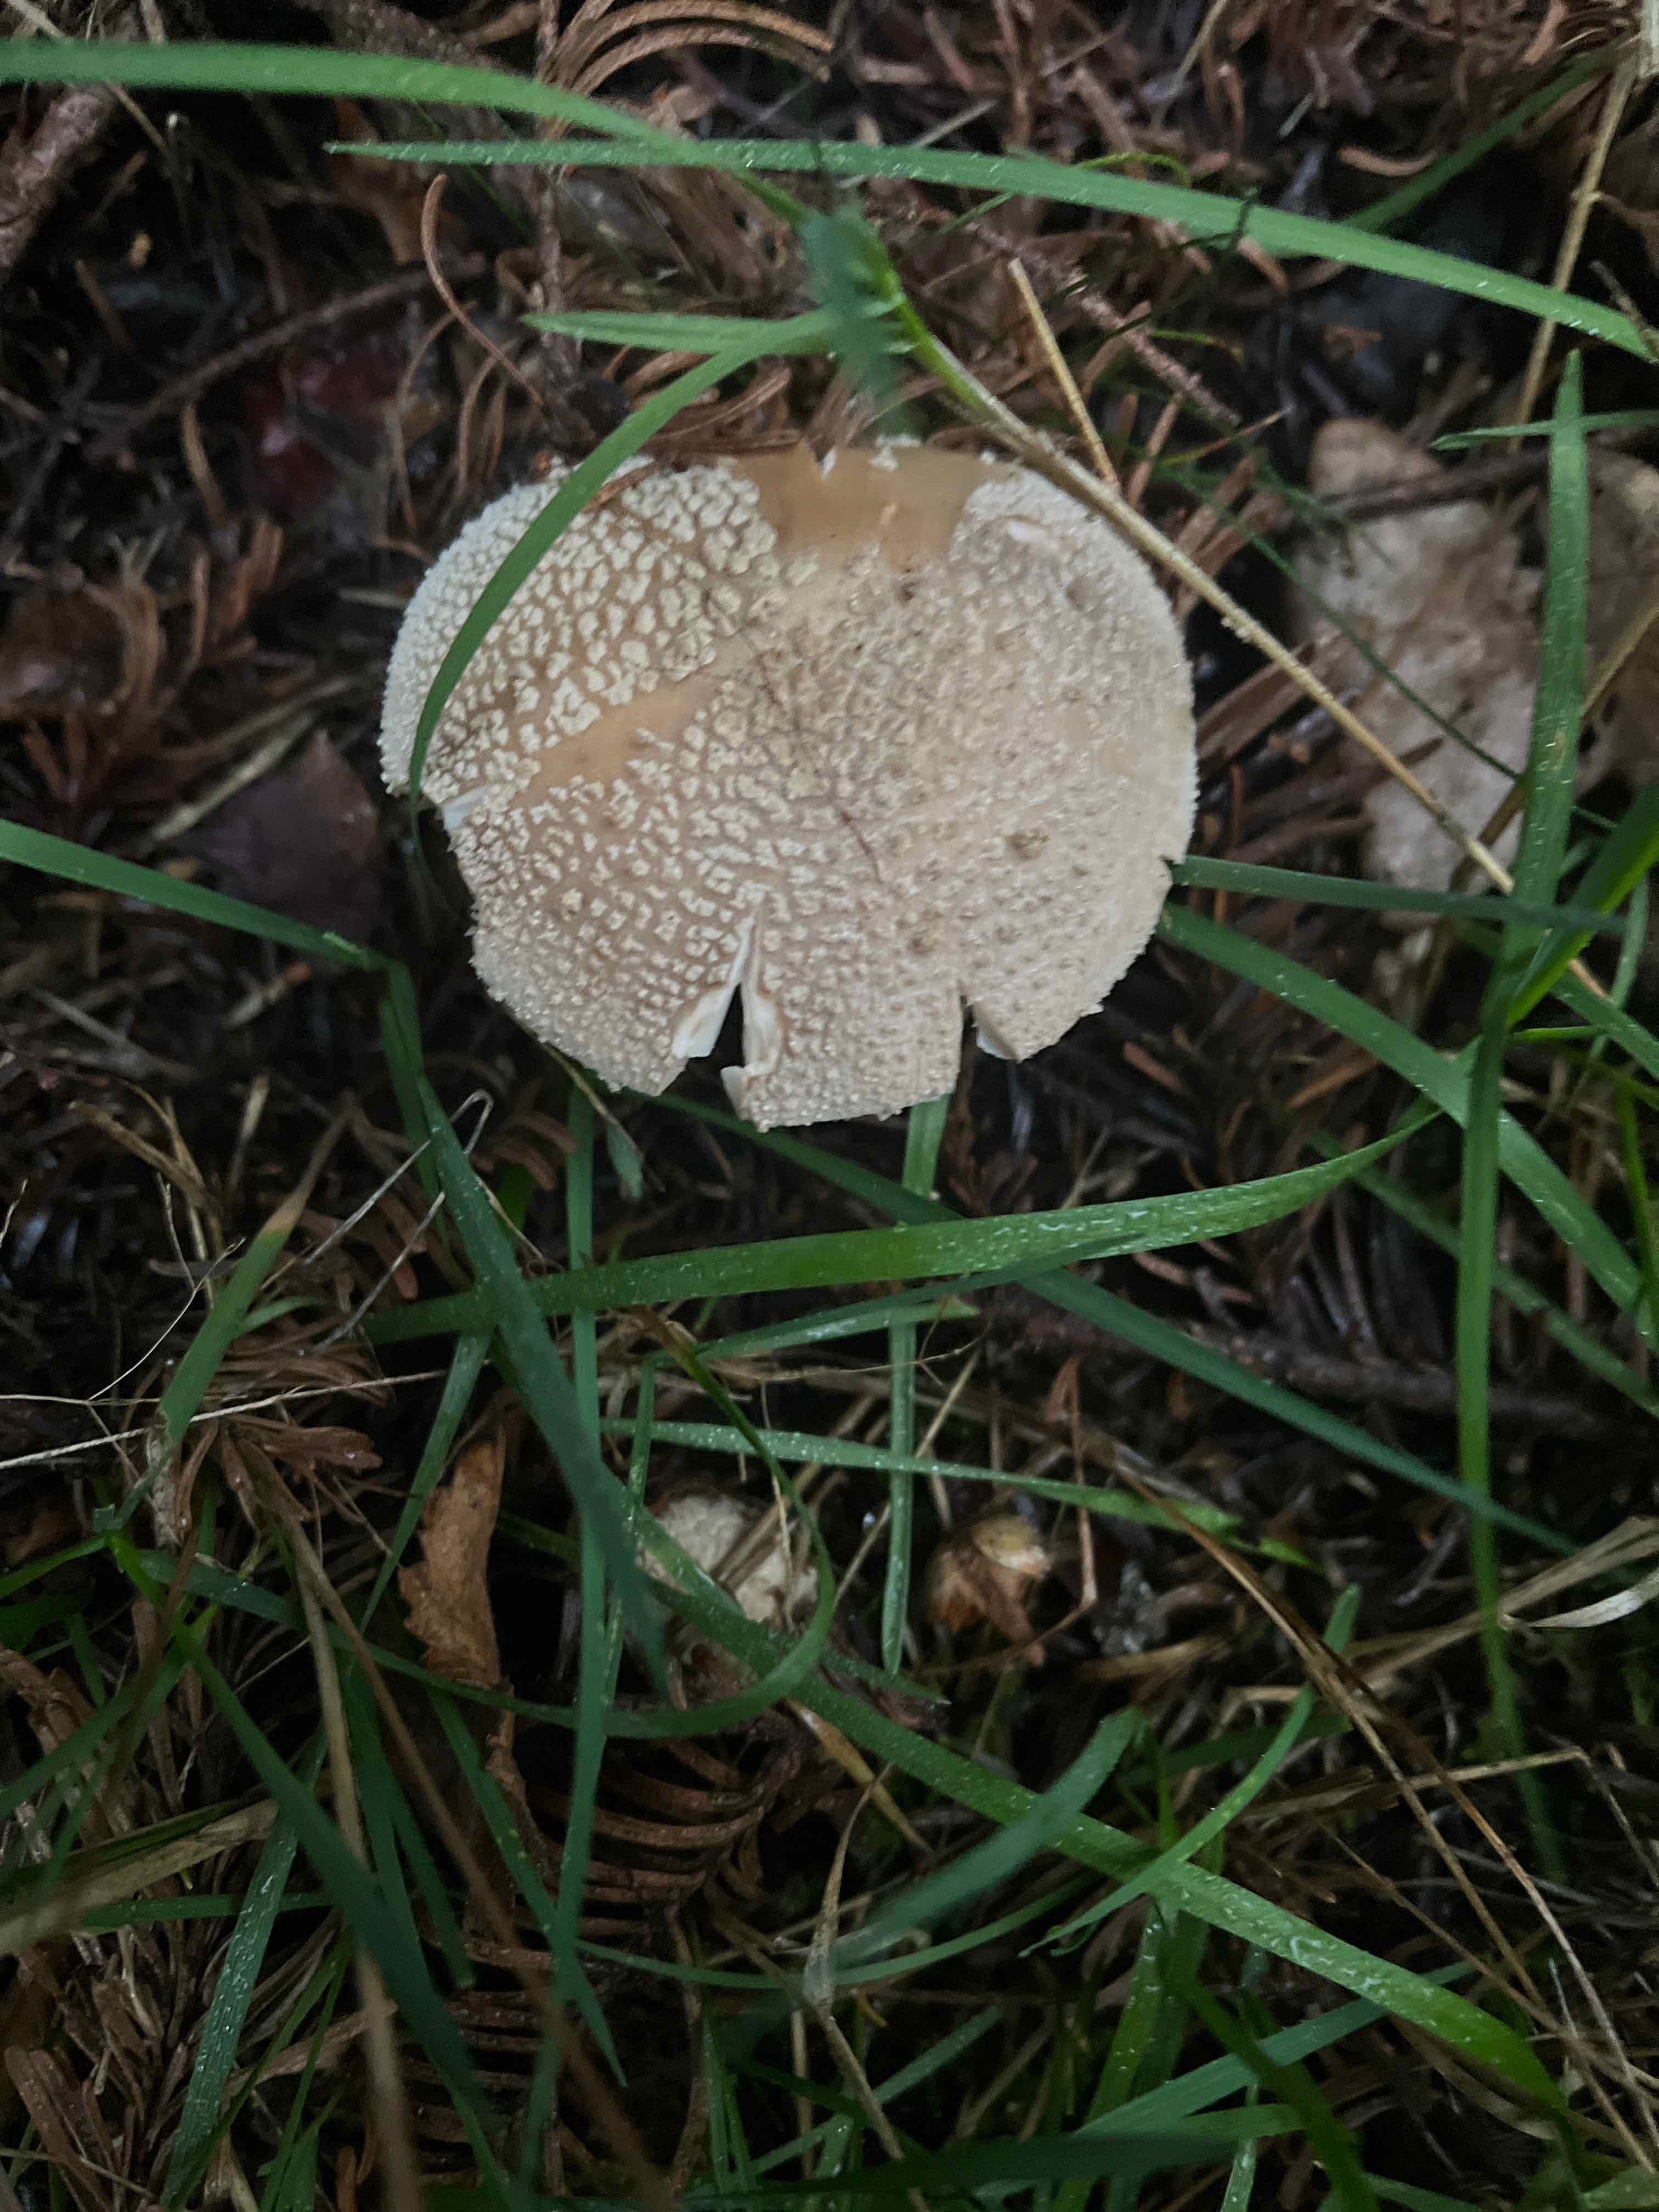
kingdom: Fungi
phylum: Basidiomycota
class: Agaricomycetes
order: Agaricales
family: Amanitaceae
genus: Amanita
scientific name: Amanita rubescens
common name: rødmende fluesvamp
